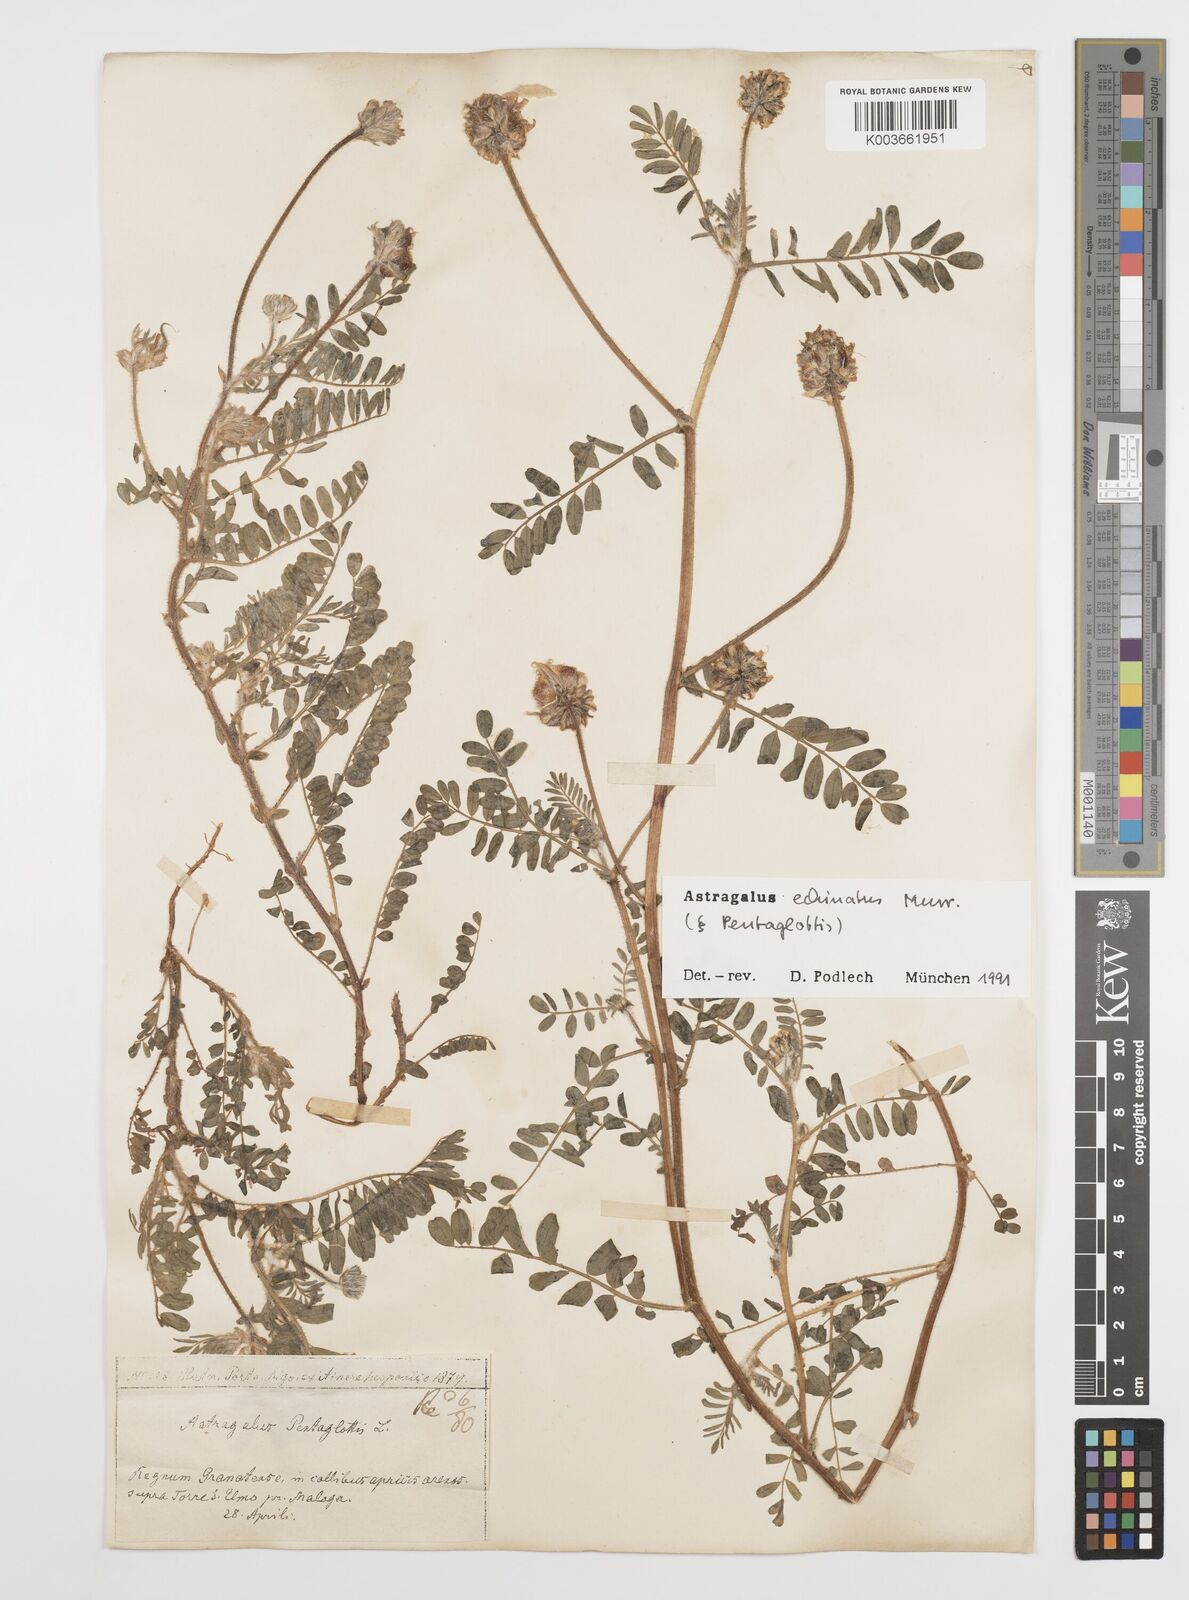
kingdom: Plantae
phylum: Tracheophyta
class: Magnoliopsida
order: Fabales
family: Fabaceae
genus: Astragalus
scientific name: Astragalus echinatus
